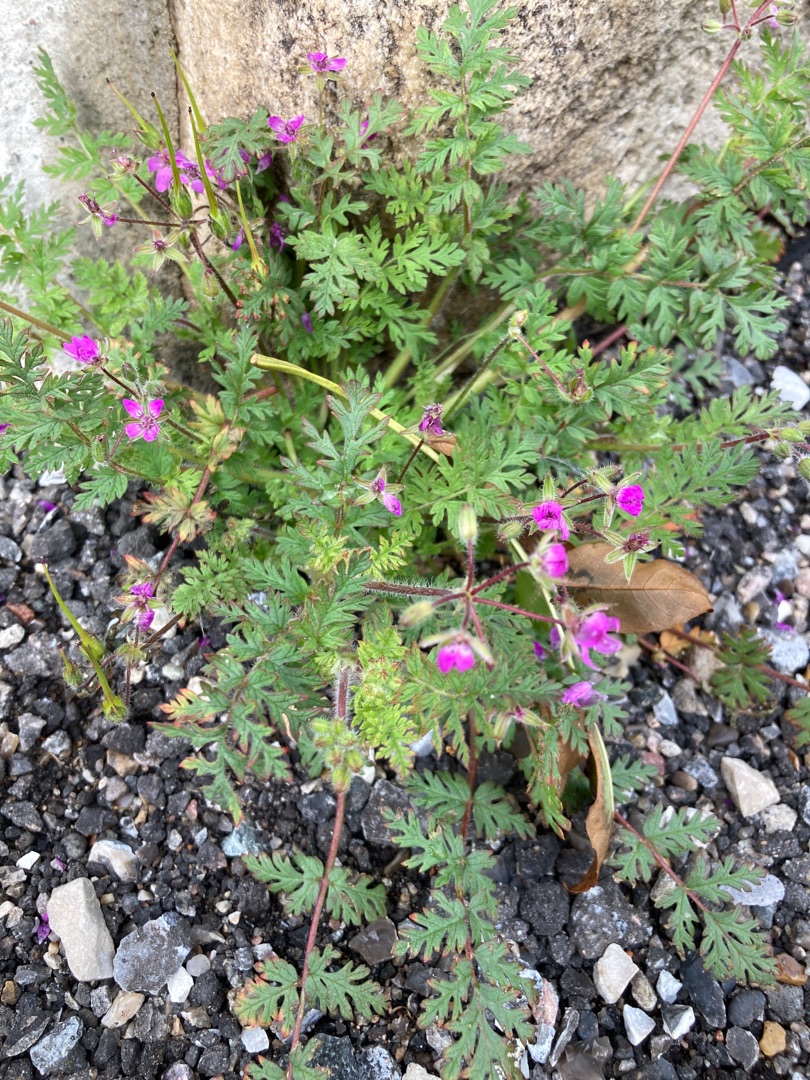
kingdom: Plantae
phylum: Tracheophyta
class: Magnoliopsida
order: Geraniales
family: Geraniaceae
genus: Erodium
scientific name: Erodium cicutarium
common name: Hejrenæb
